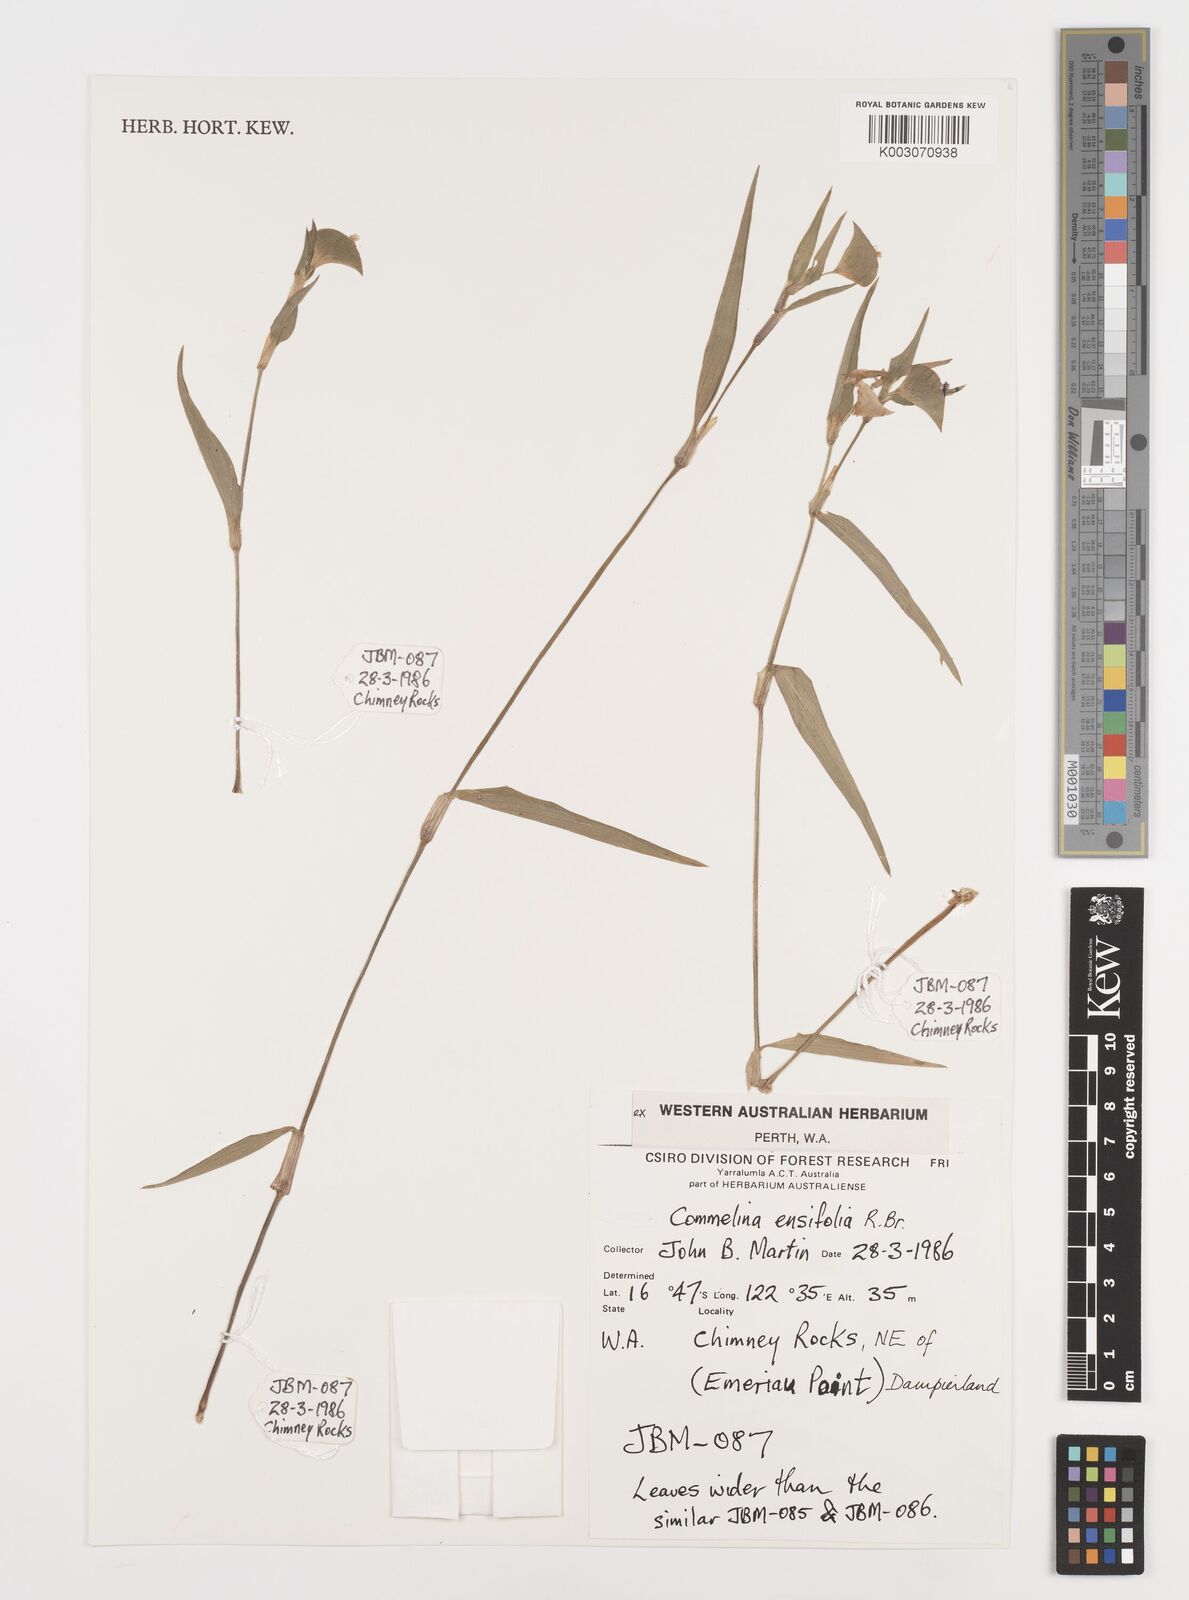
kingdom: Plantae
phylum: Tracheophyta
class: Liliopsida
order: Commelinales
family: Commelinaceae
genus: Commelina
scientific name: Commelina ensifolia
